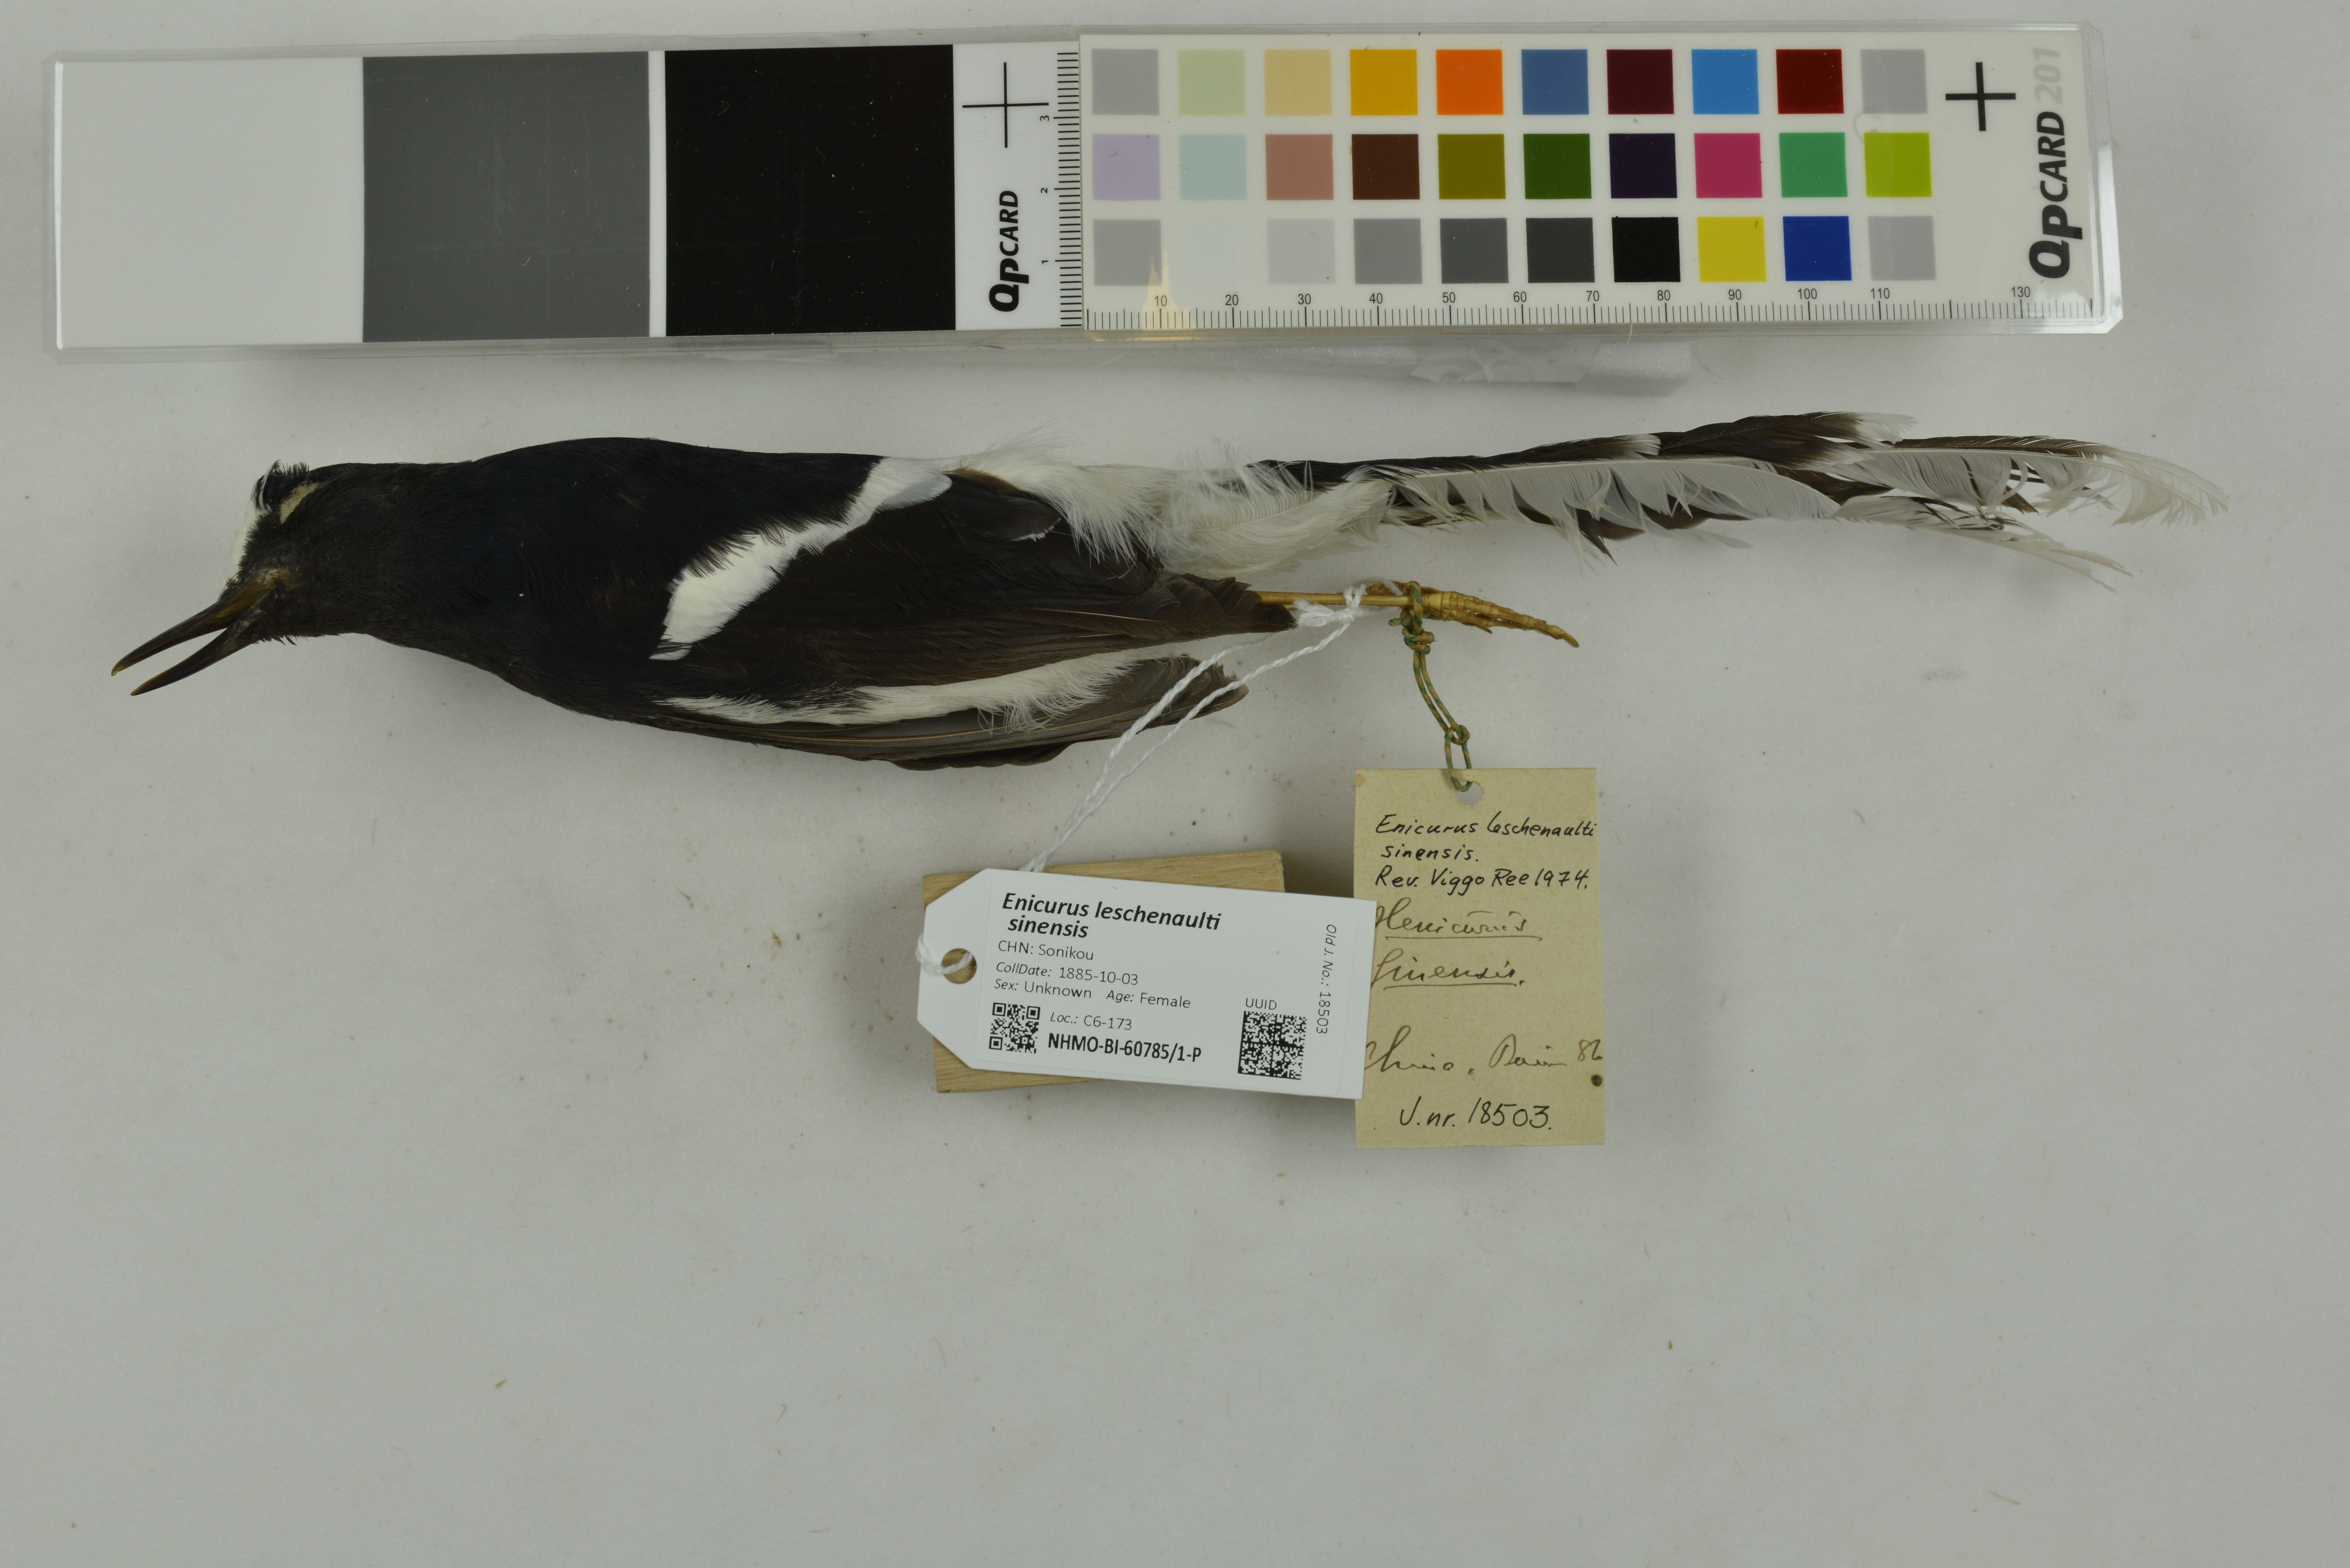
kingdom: Animalia
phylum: Chordata
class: Aves
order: Passeriformes
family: Muscicapidae
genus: Enicurus
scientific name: Enicurus leschenaulti
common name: White-crowned forktail
